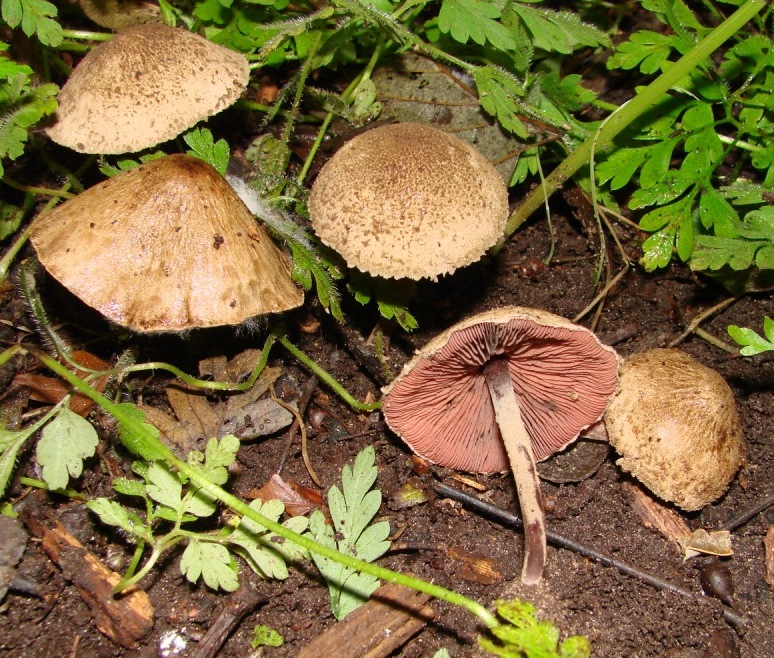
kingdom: Fungi
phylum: Basidiomycota
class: Agaricomycetes
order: Agaricales
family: Agaricaceae
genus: Melanophyllum
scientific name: Melanophyllum haematospermum
